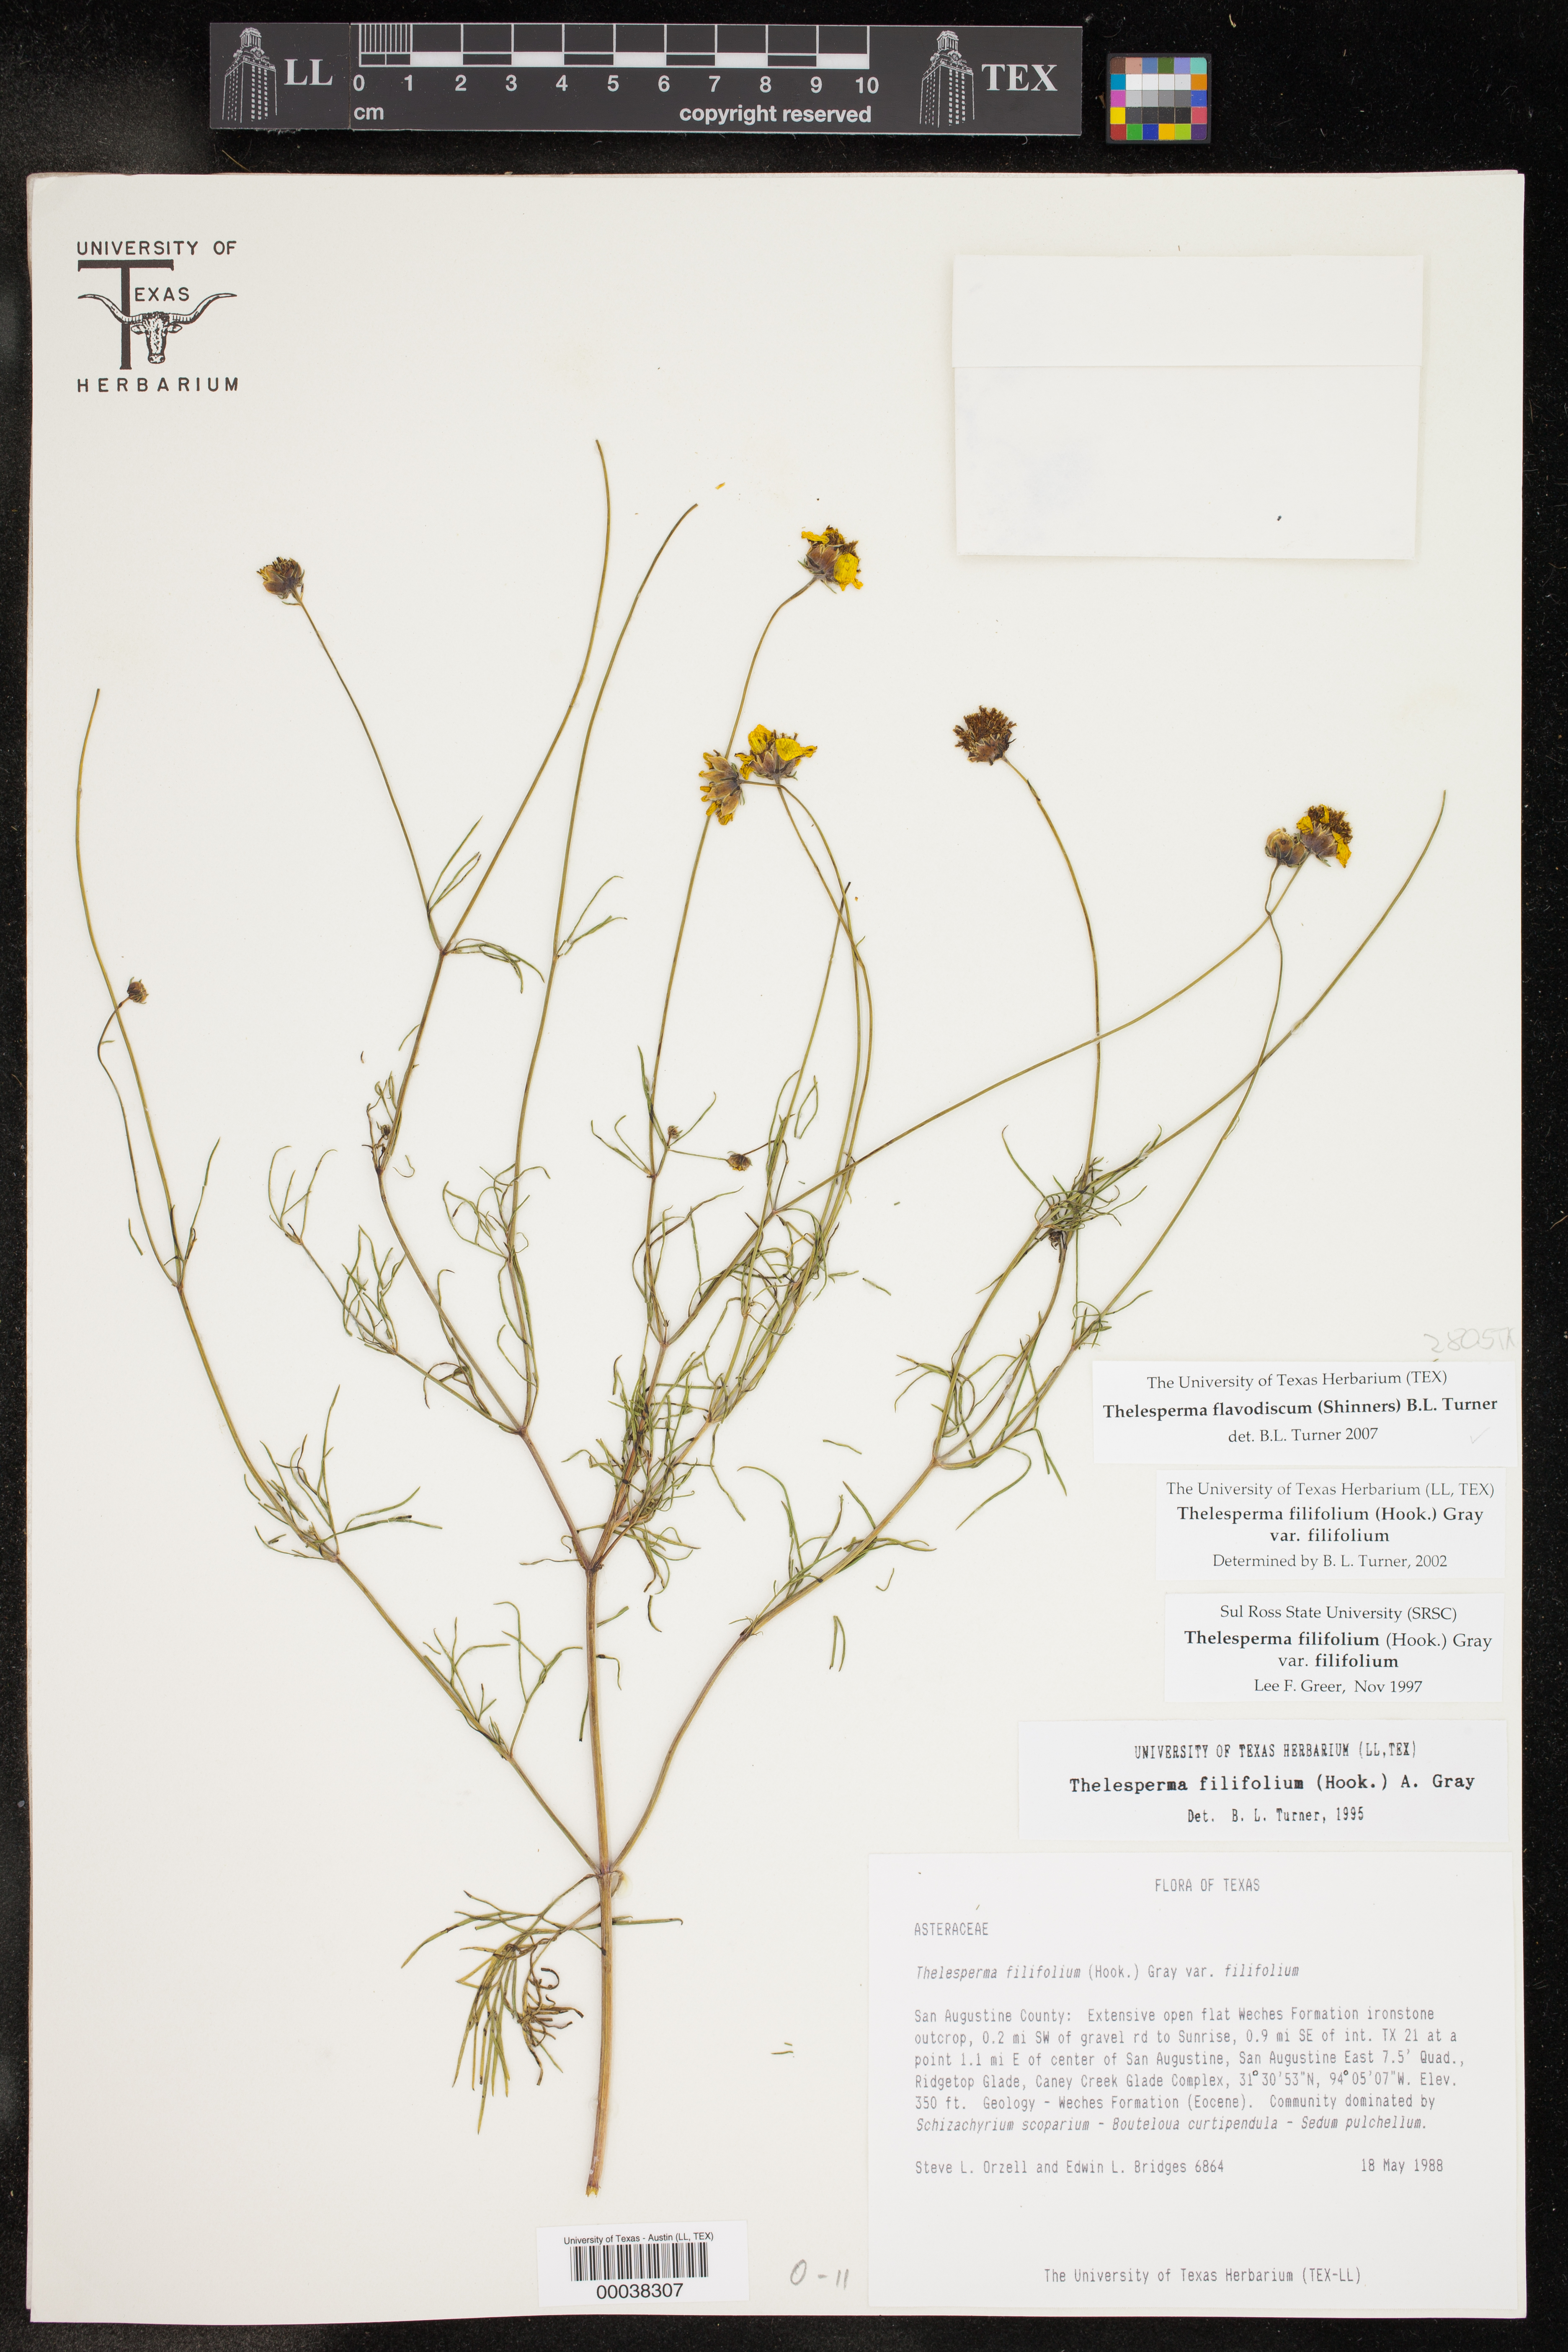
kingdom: Plantae
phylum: Tracheophyta
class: Magnoliopsida
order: Asterales
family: Asteraceae
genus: Thelesperma
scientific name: Thelesperma flavodiscum
